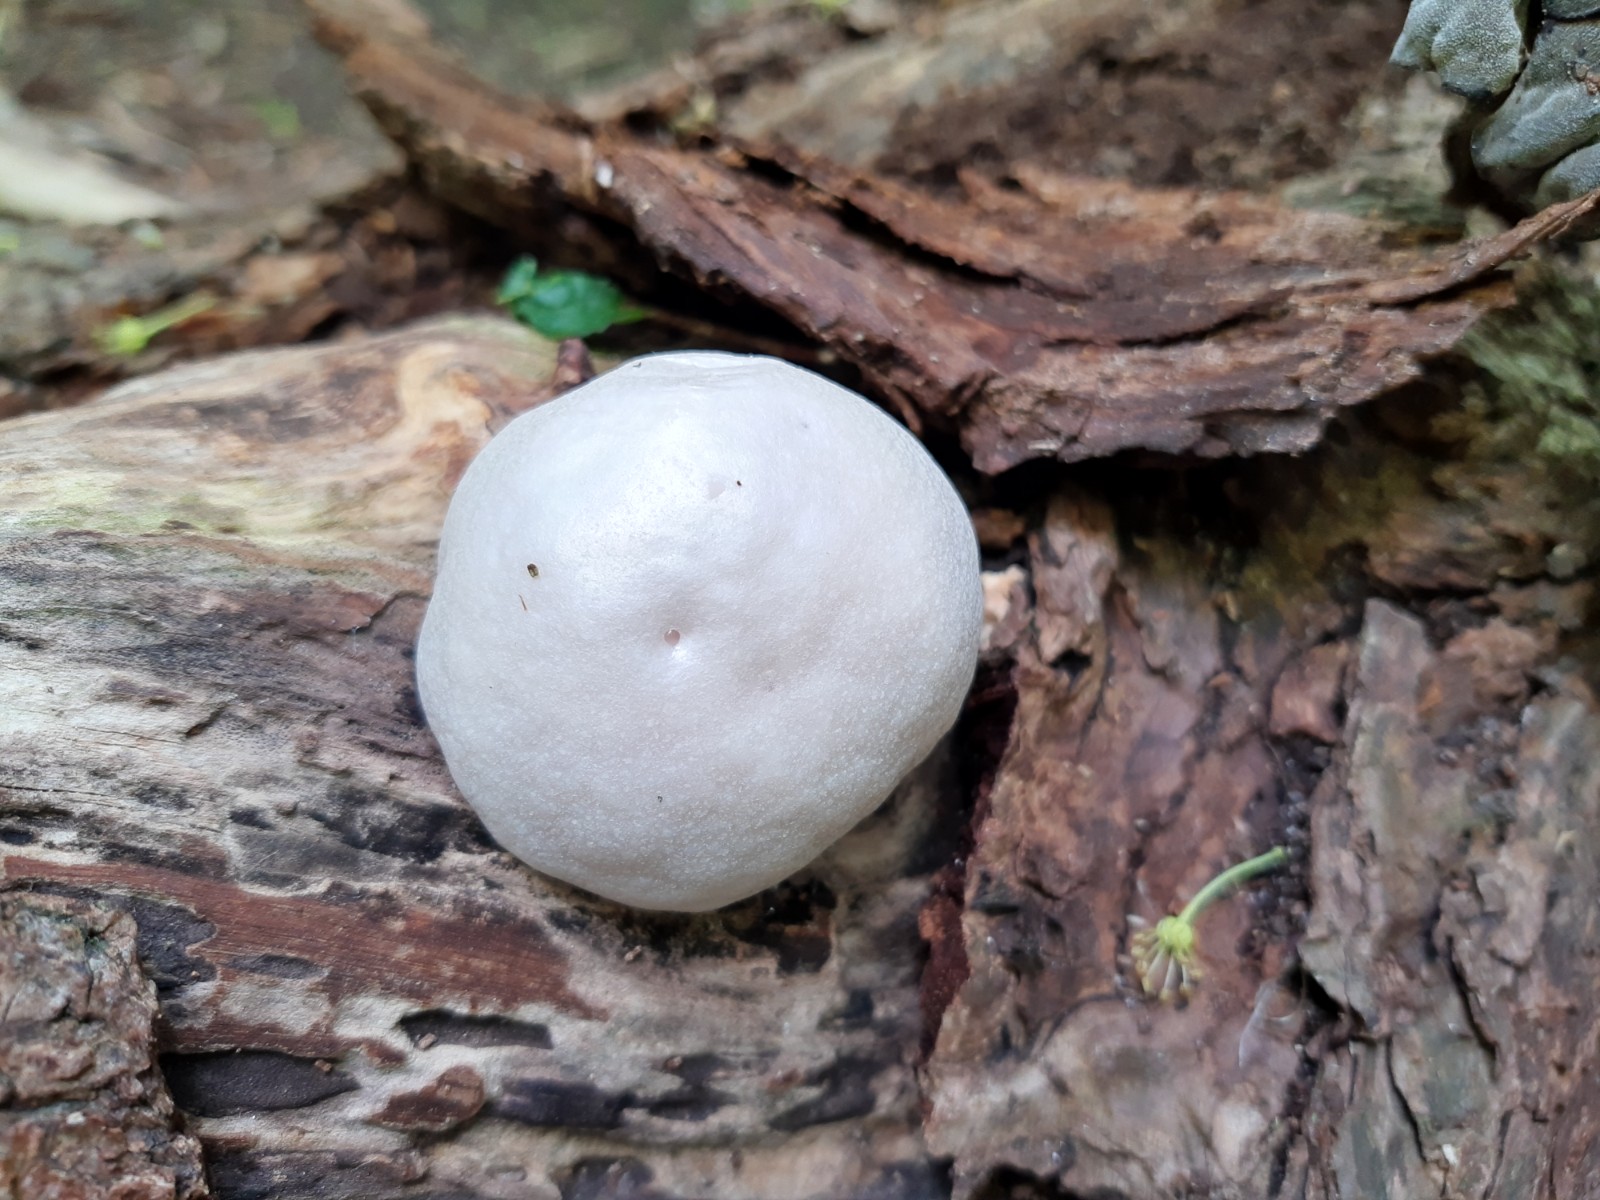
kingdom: Protozoa
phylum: Mycetozoa
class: Myxomycetes
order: Cribrariales
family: Tubiferaceae
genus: Reticularia
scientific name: Reticularia lycoperdon
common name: skinnende støvpude
